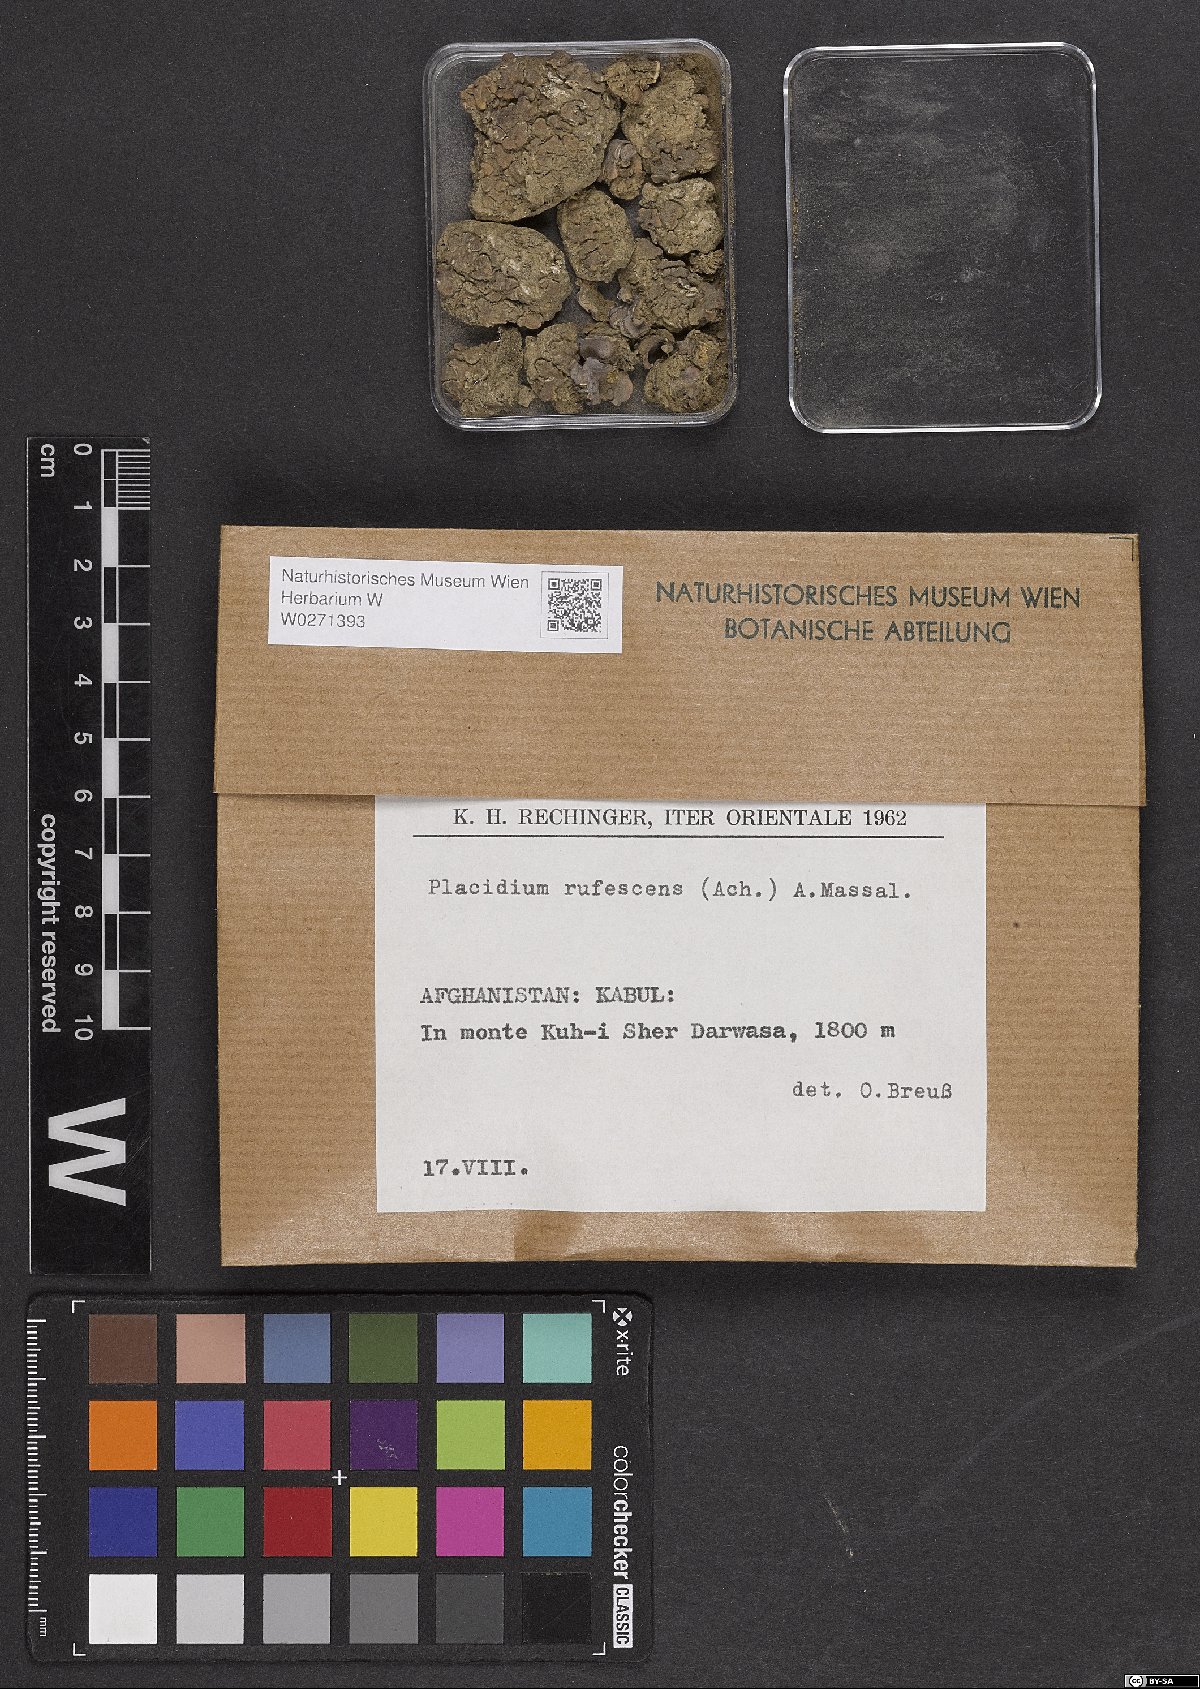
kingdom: Fungi
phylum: Ascomycota
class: Eurotiomycetes
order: Verrucariales
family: Verrucariaceae
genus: Catapyrenium
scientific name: Catapyrenium rufescens
